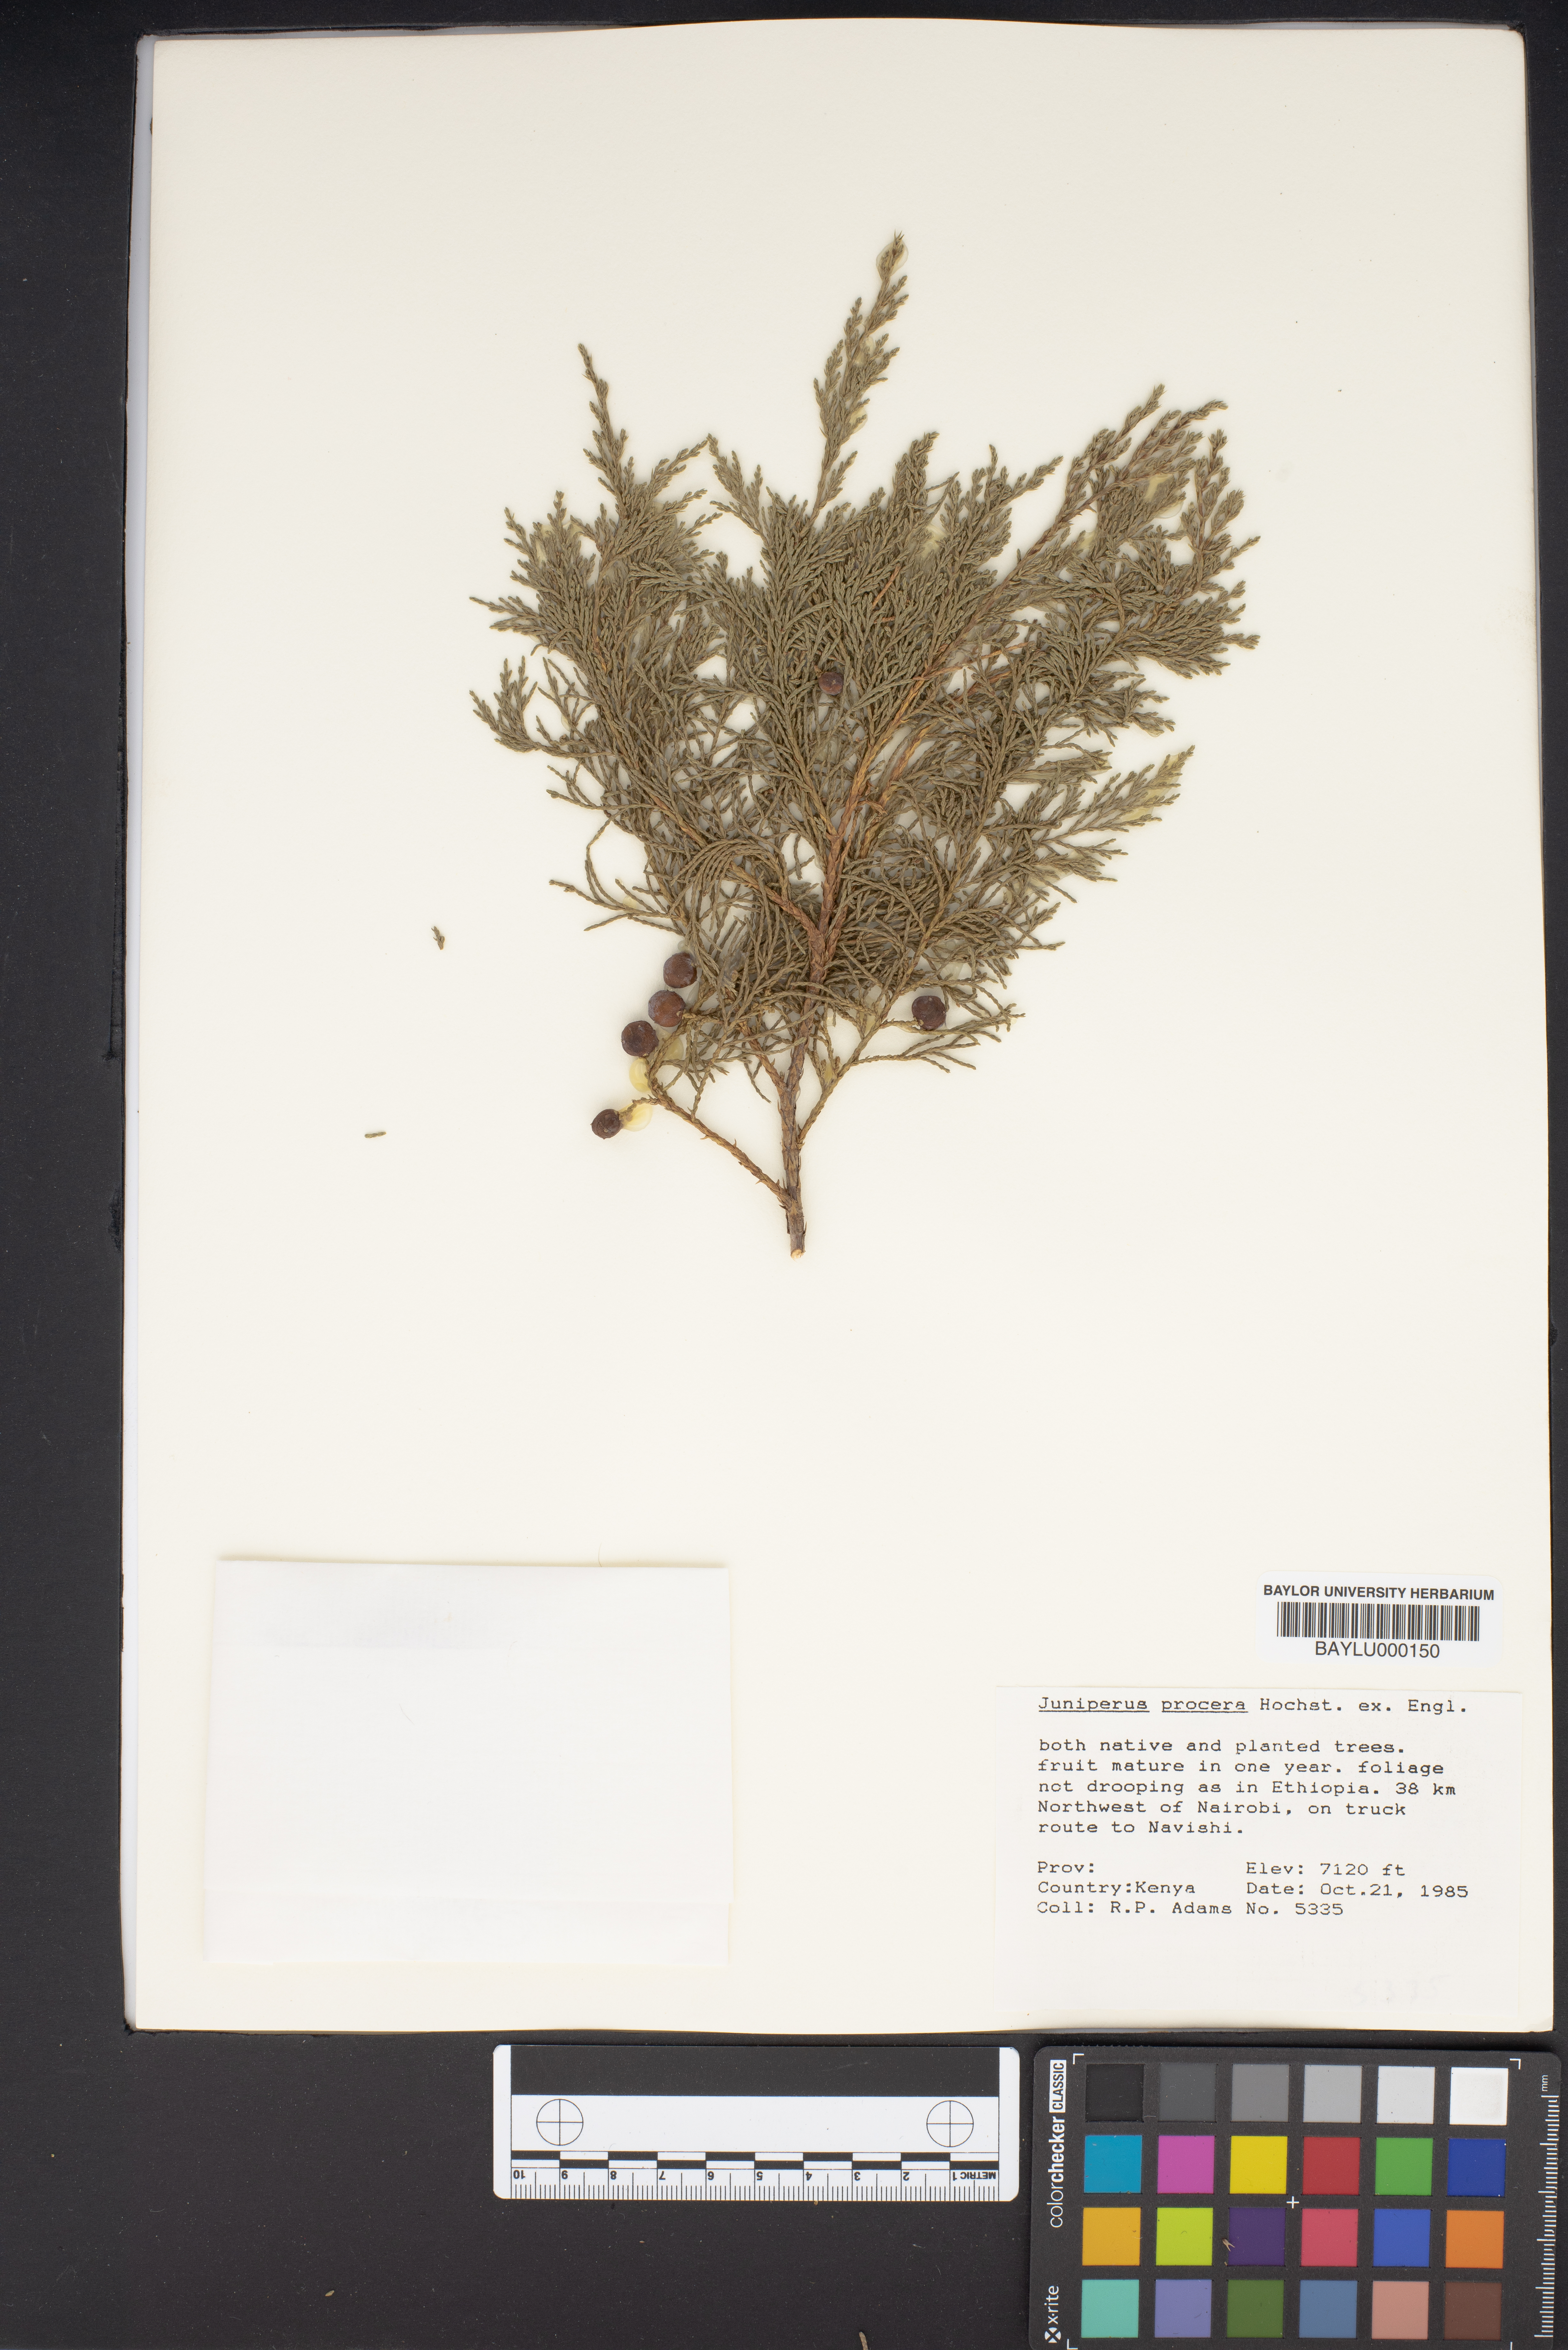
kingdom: Plantae
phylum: Tracheophyta
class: Pinopsida
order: Pinales
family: Cupressaceae
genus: Juniperus
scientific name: Juniperus procera
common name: African juniper
